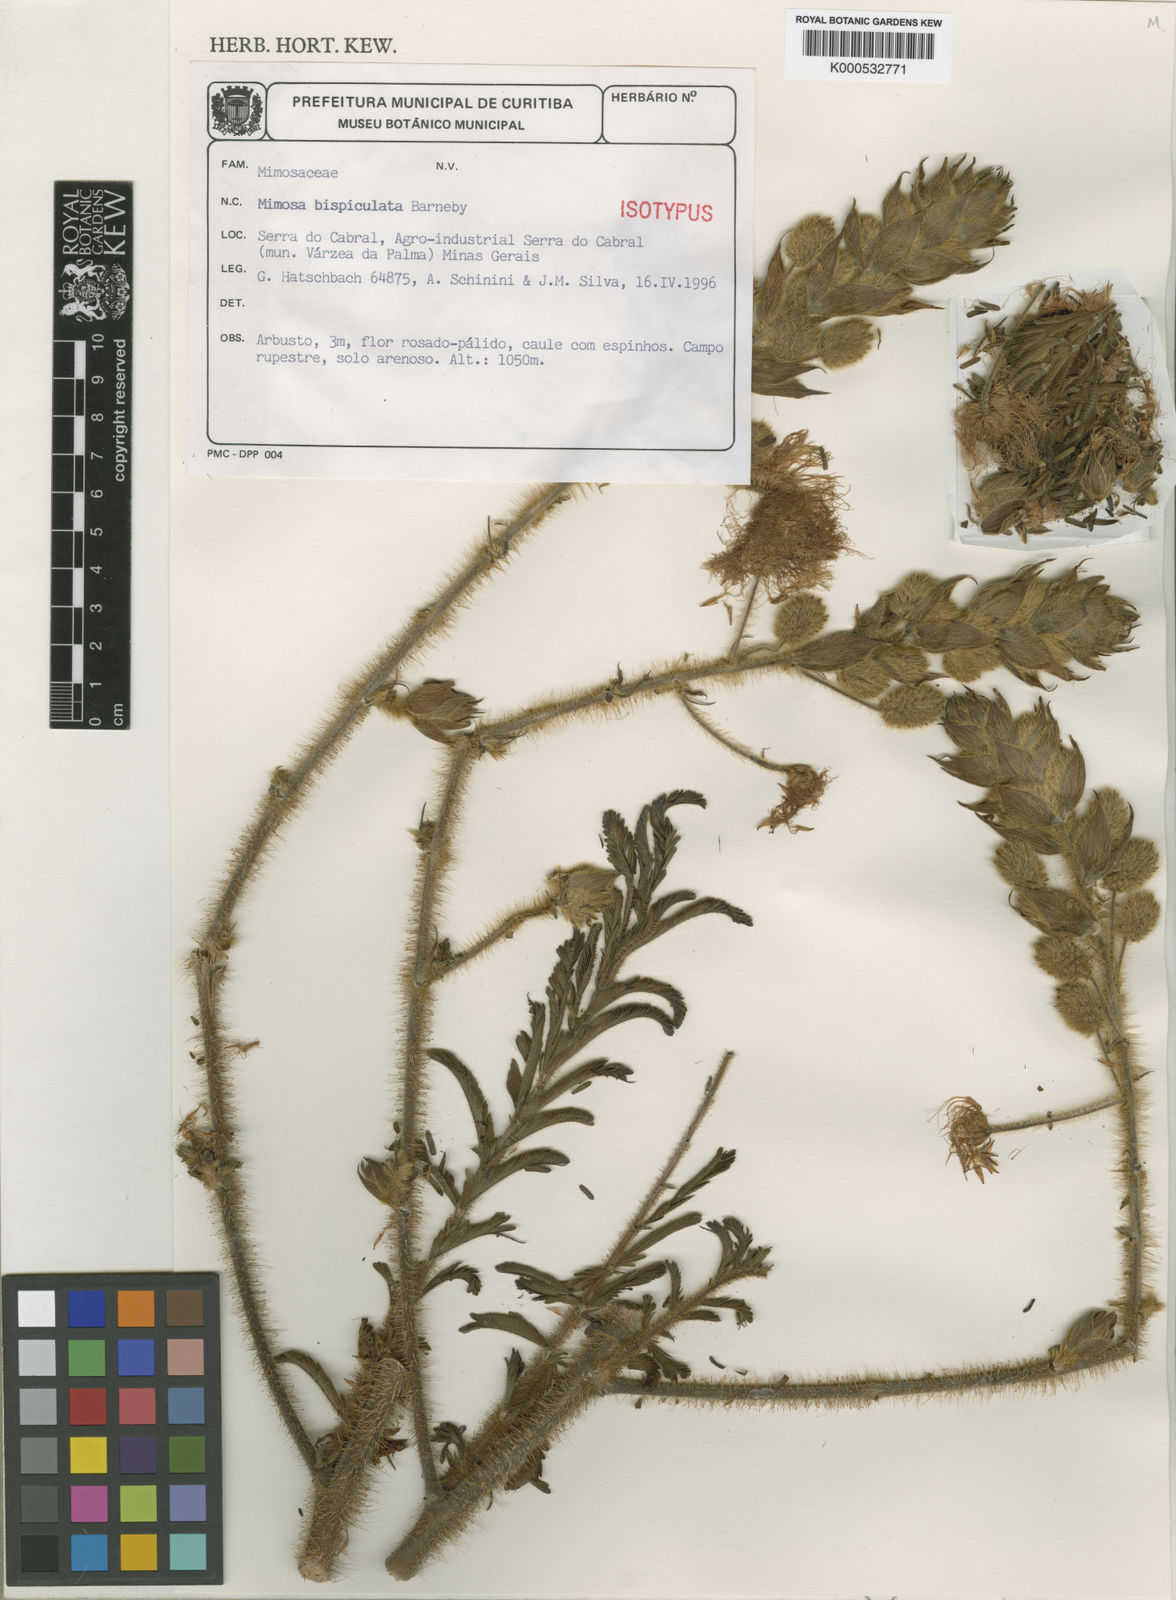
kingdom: Plantae
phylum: Tracheophyta
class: Magnoliopsida
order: Fabales
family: Fabaceae
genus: Mimosa
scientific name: Mimosa bispiculata
